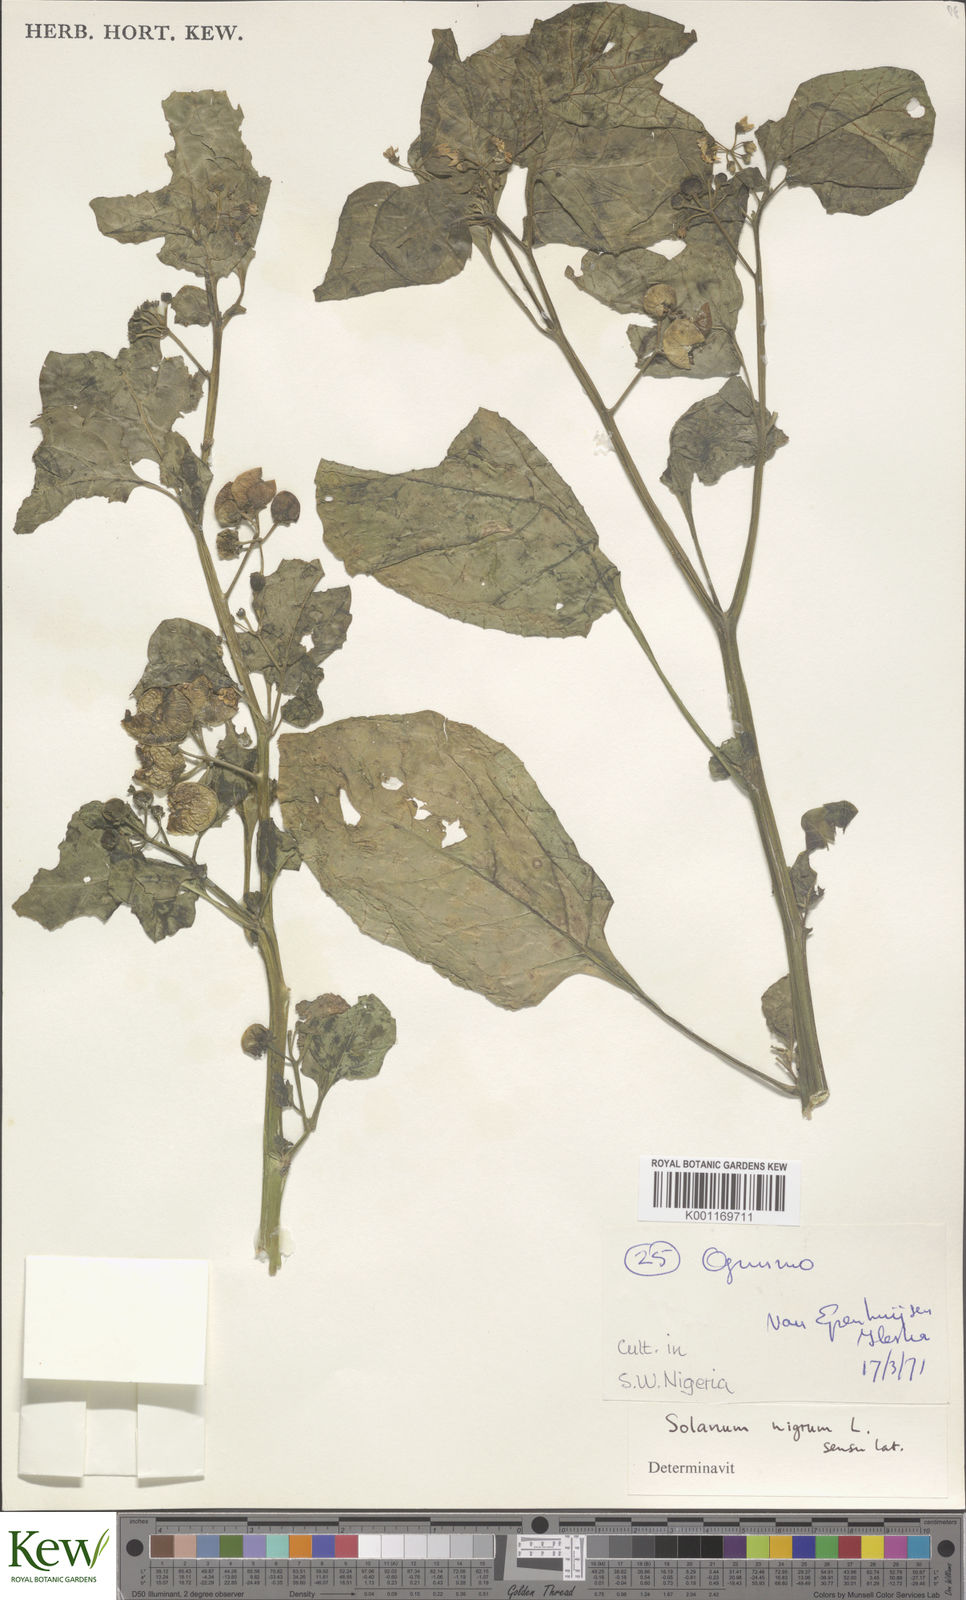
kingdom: Plantae
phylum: Tracheophyta
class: Magnoliopsida
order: Solanales
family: Solanaceae
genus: Solanum
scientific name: Solanum scabrum
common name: Garden-huckleberry
